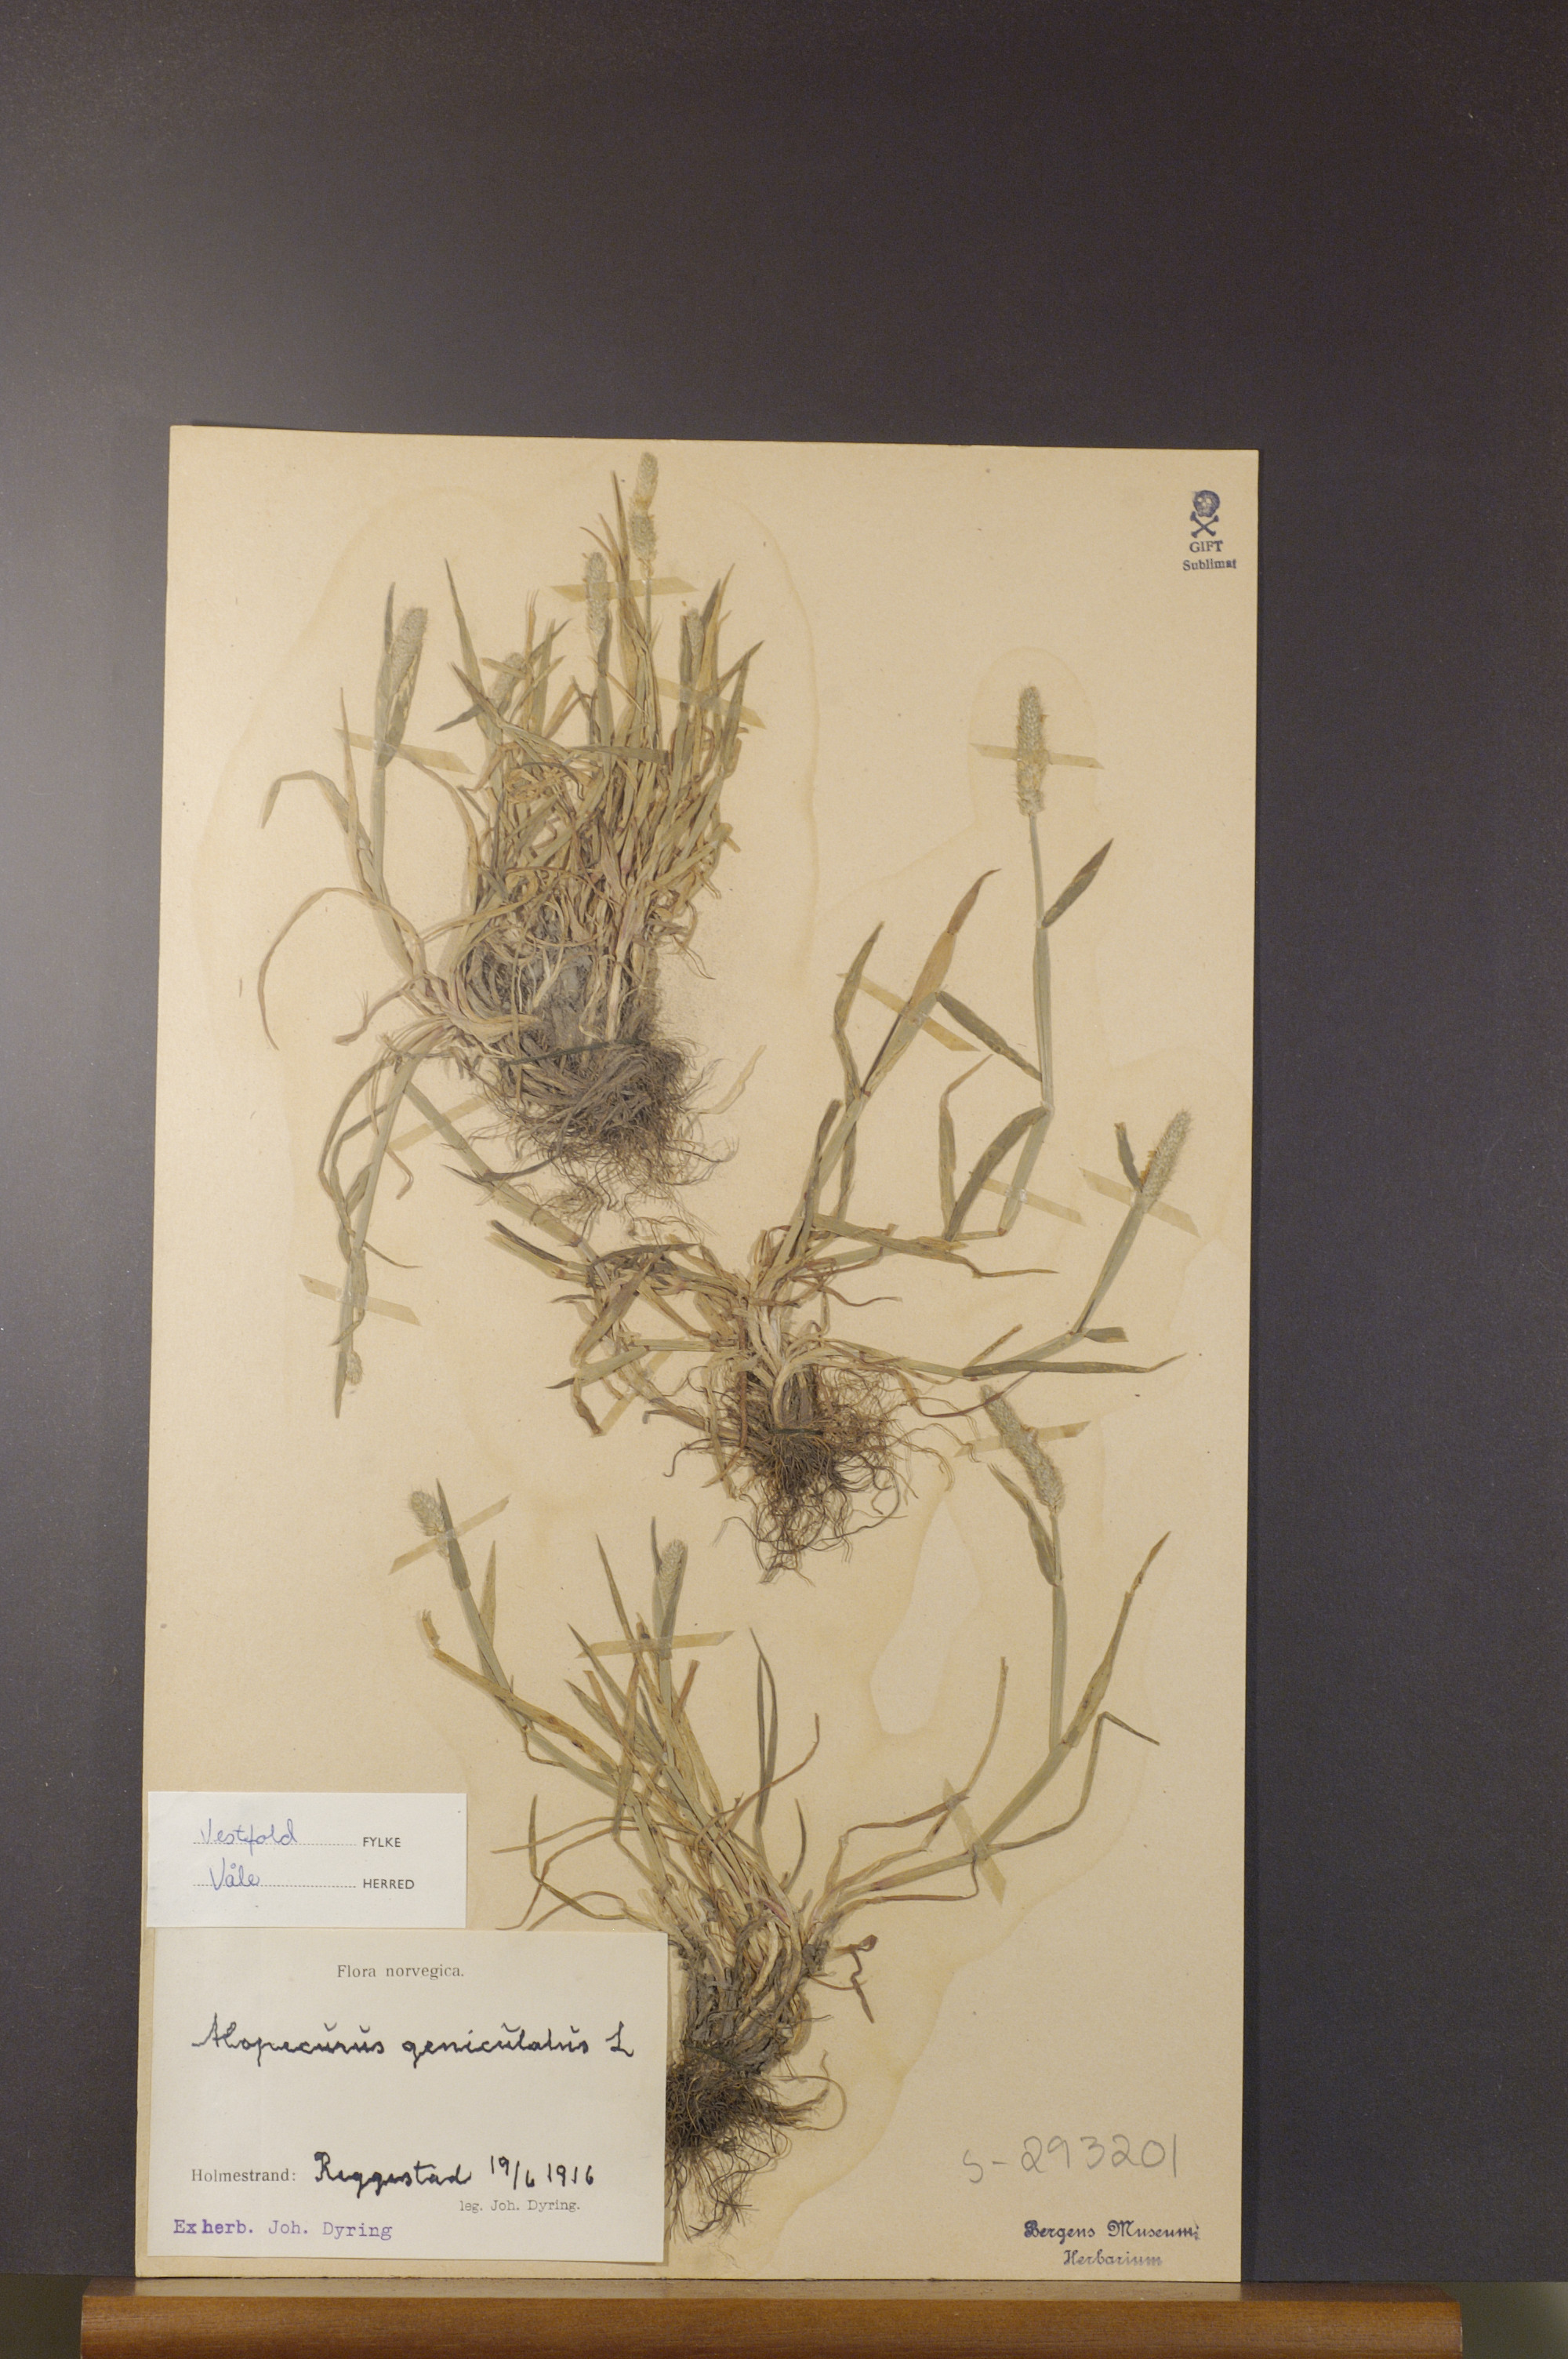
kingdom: Plantae
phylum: Tracheophyta
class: Liliopsida
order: Poales
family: Poaceae
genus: Alopecurus
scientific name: Alopecurus geniculatus
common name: Water foxtail
